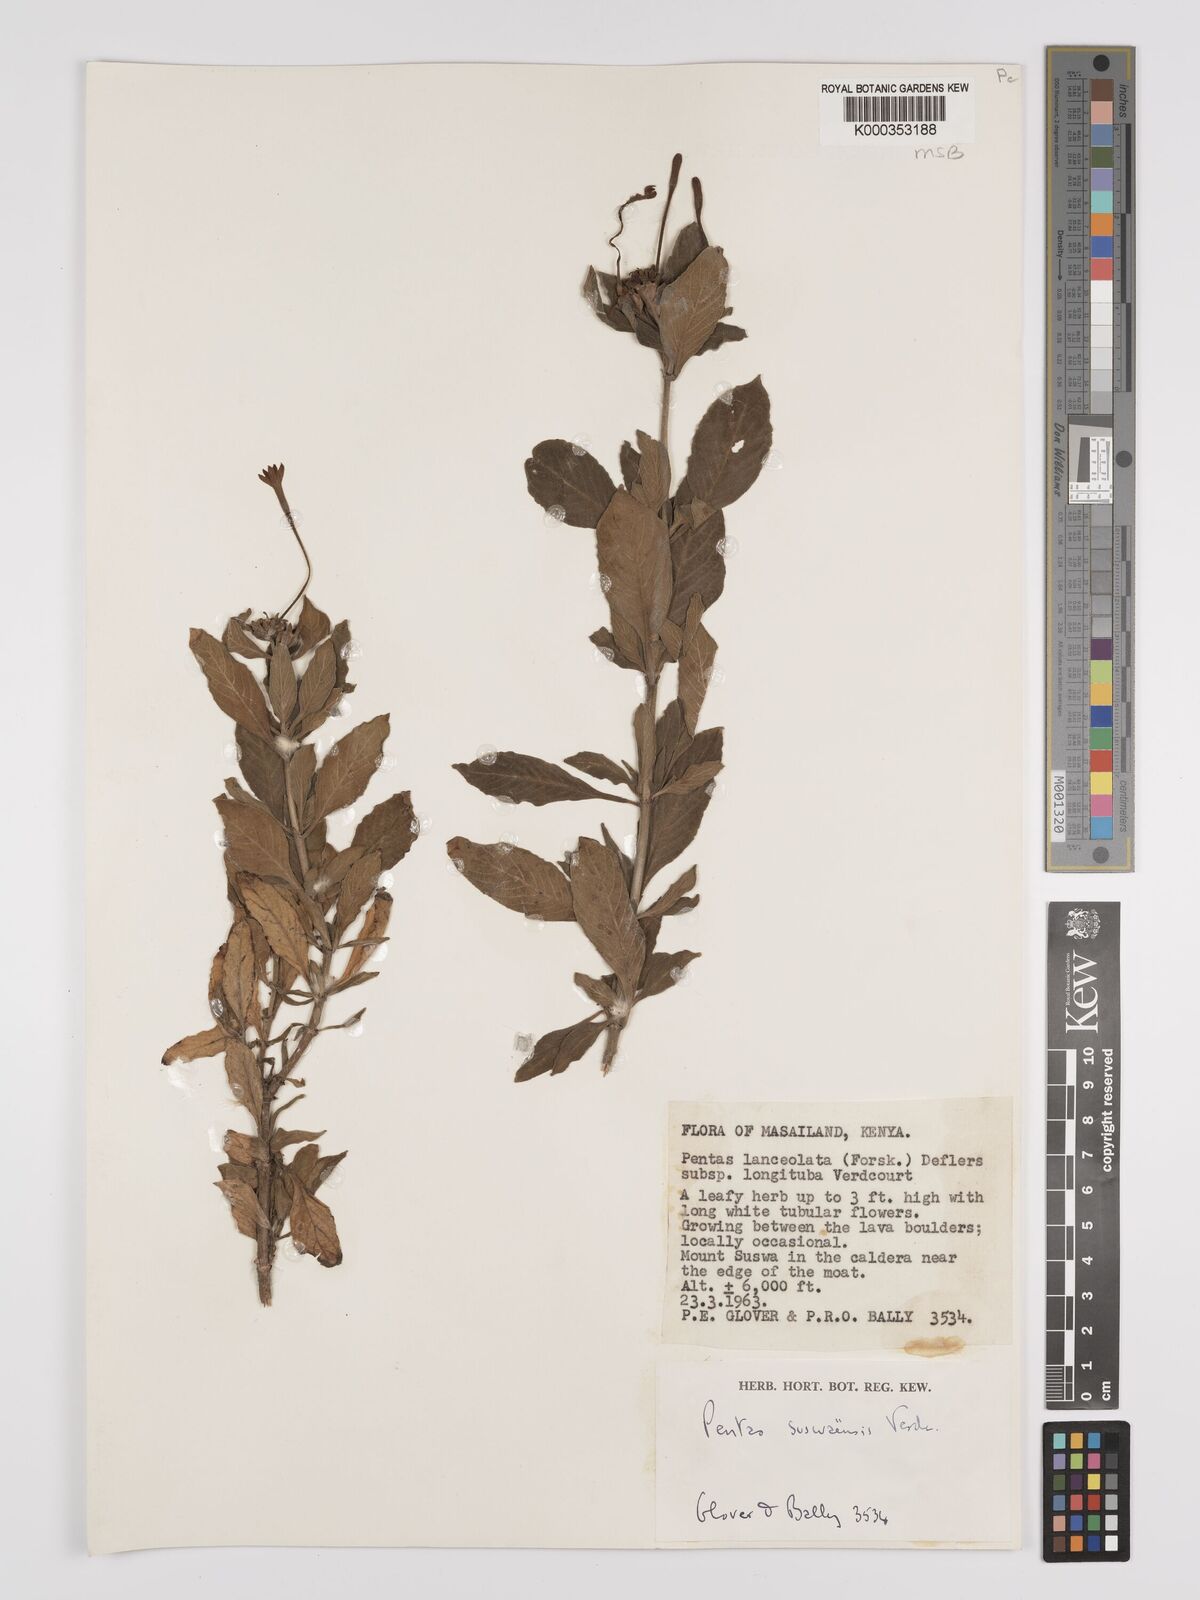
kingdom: Plantae
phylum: Tracheophyta
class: Magnoliopsida
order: Gentianales
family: Rubiaceae
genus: Pentas
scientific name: Pentas suswaensis
